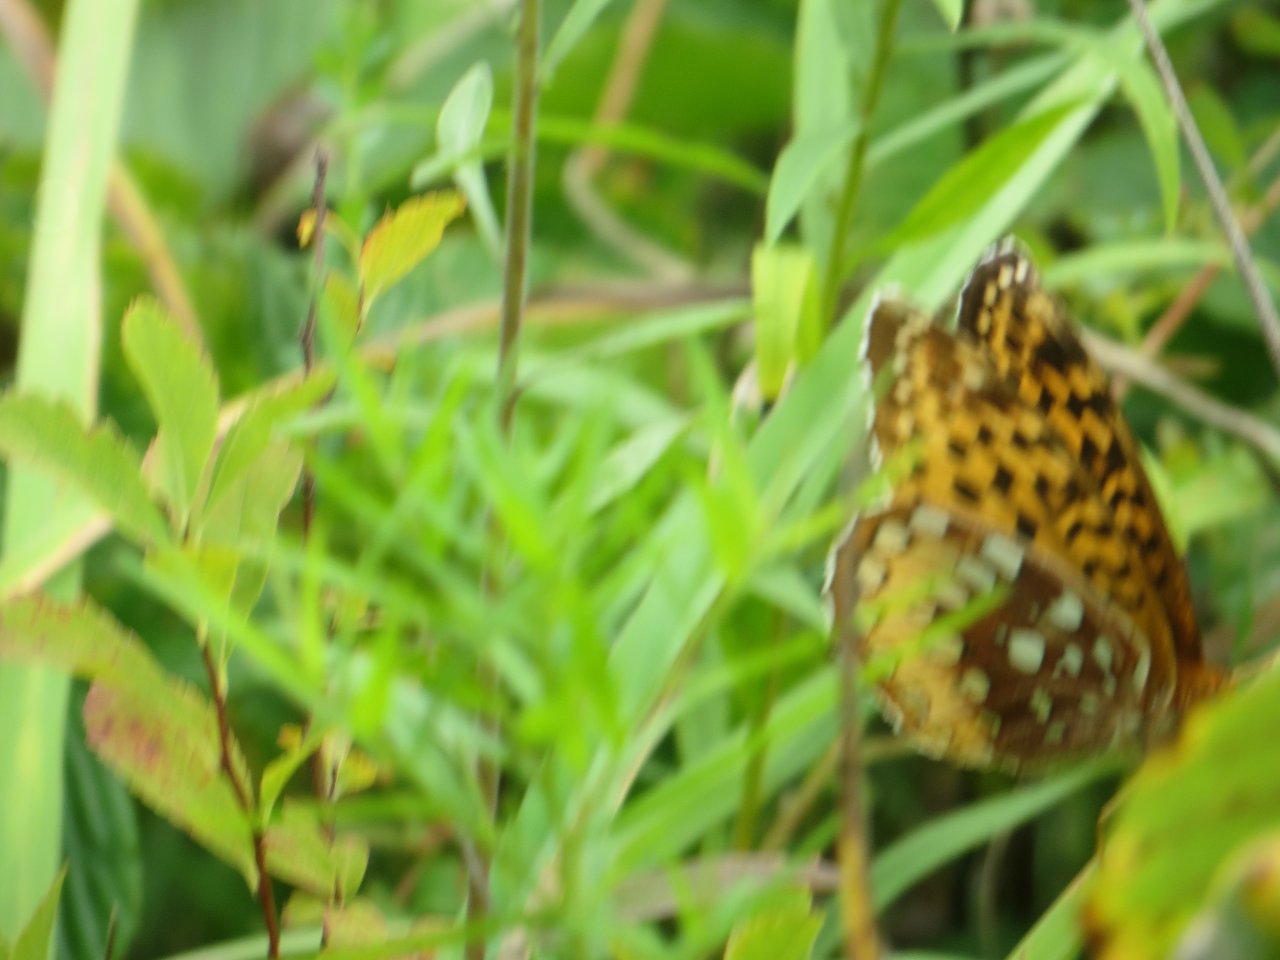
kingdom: Animalia
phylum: Arthropoda
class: Insecta
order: Lepidoptera
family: Nymphalidae
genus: Speyeria
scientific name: Speyeria cybele
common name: Great Spangled Fritillary
